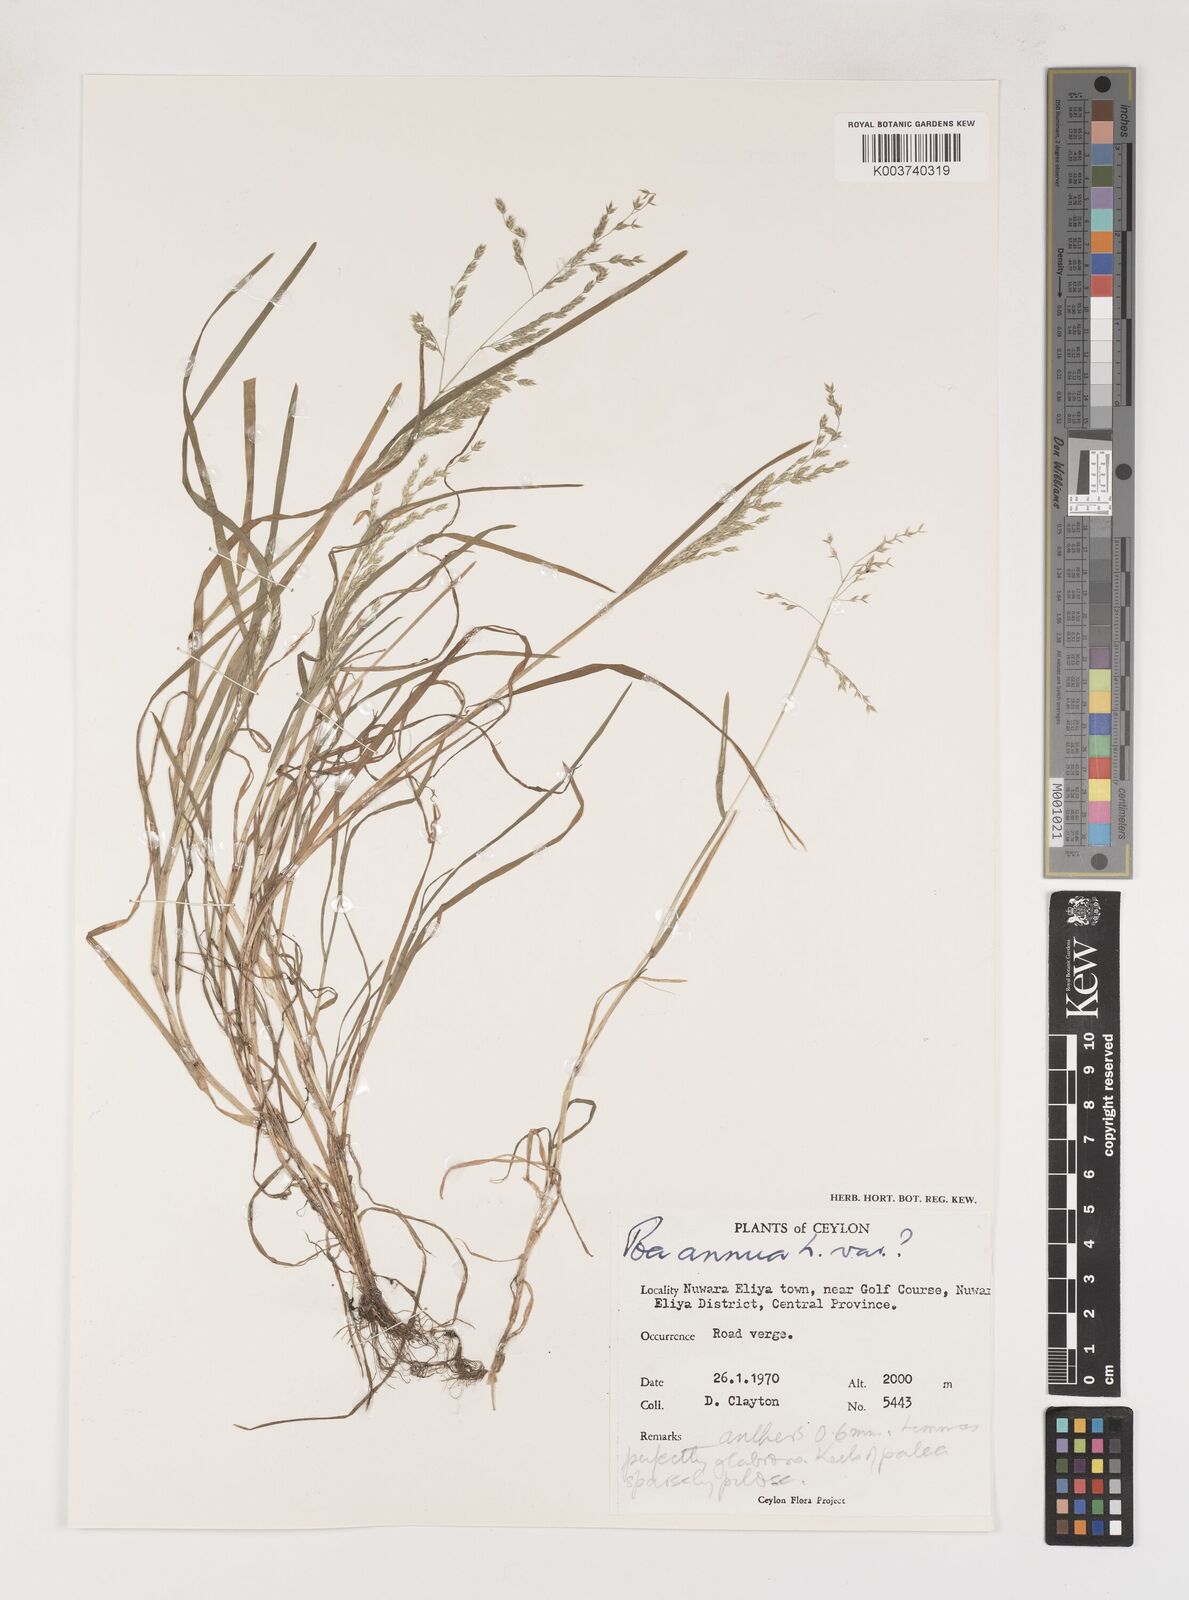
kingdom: Plantae
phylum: Tracheophyta
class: Liliopsida
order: Poales
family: Poaceae
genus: Poa
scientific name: Poa annua
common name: Annual bluegrass
